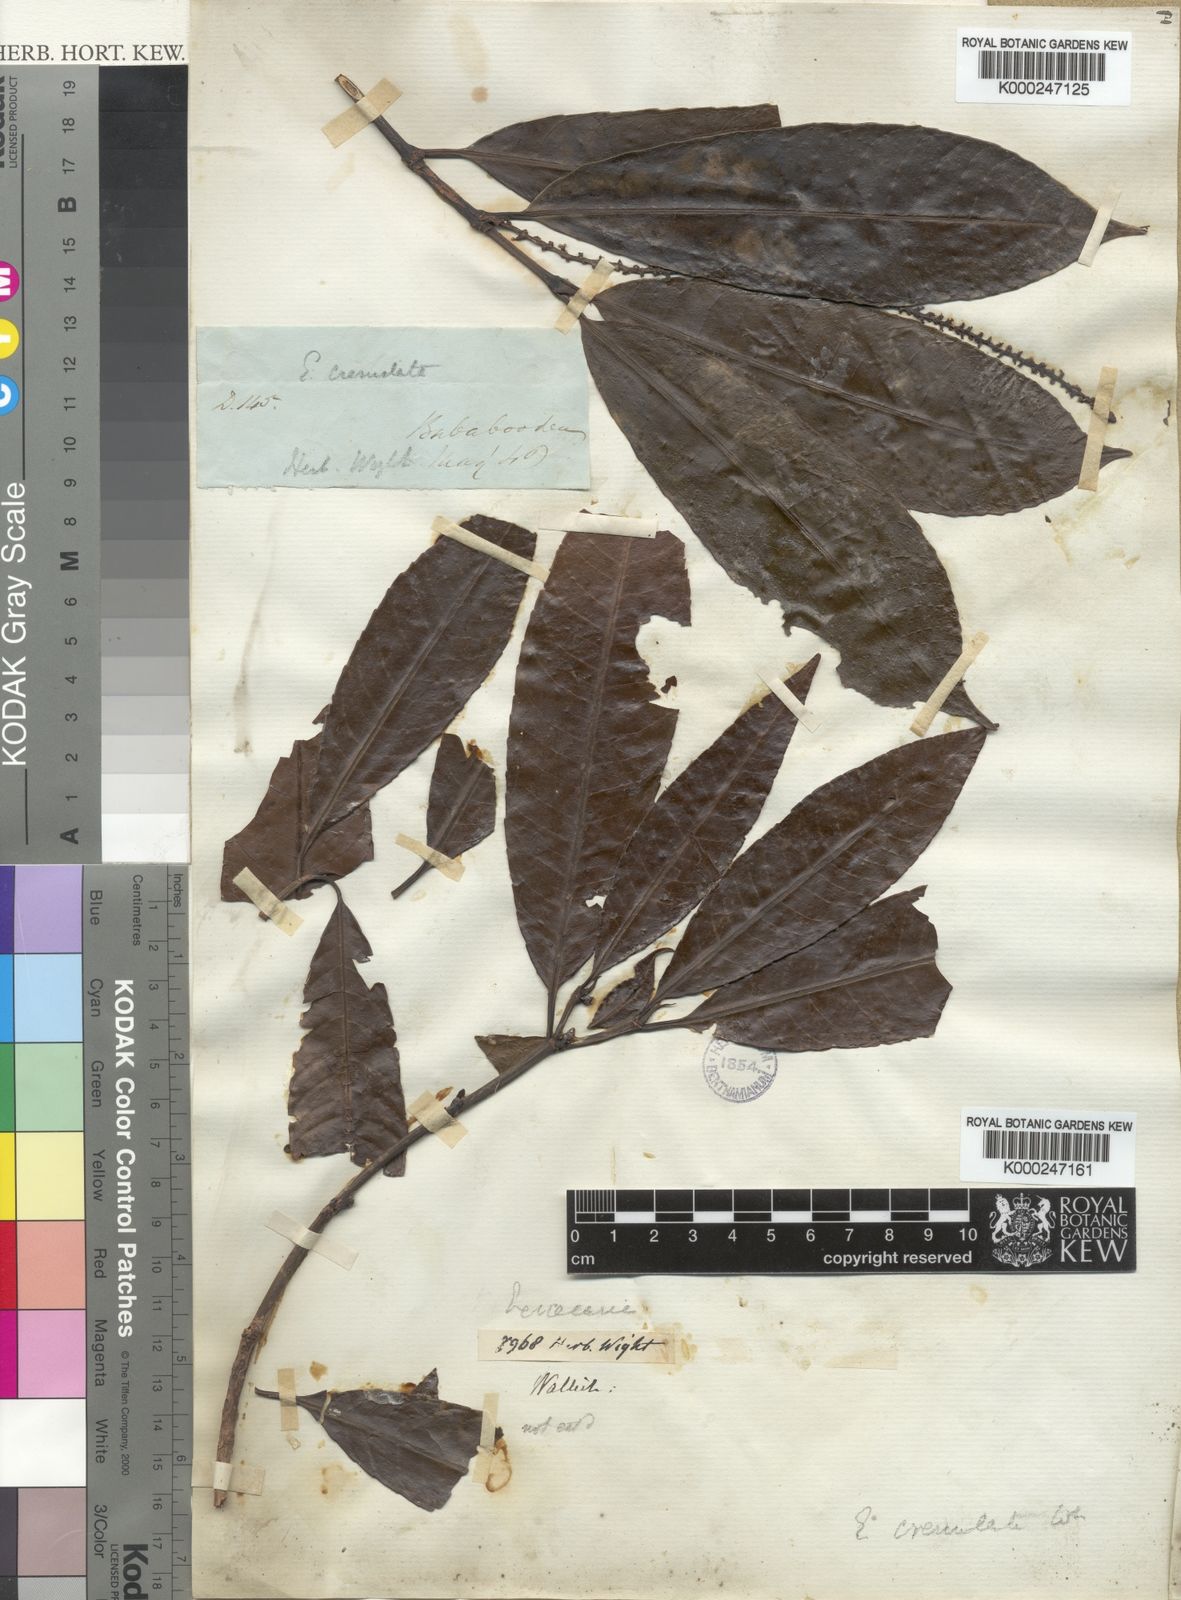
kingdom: Plantae
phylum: Tracheophyta
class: Magnoliopsida
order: Malpighiales
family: Euphorbiaceae
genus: Excoecaria
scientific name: Excoecaria oppositifolia
